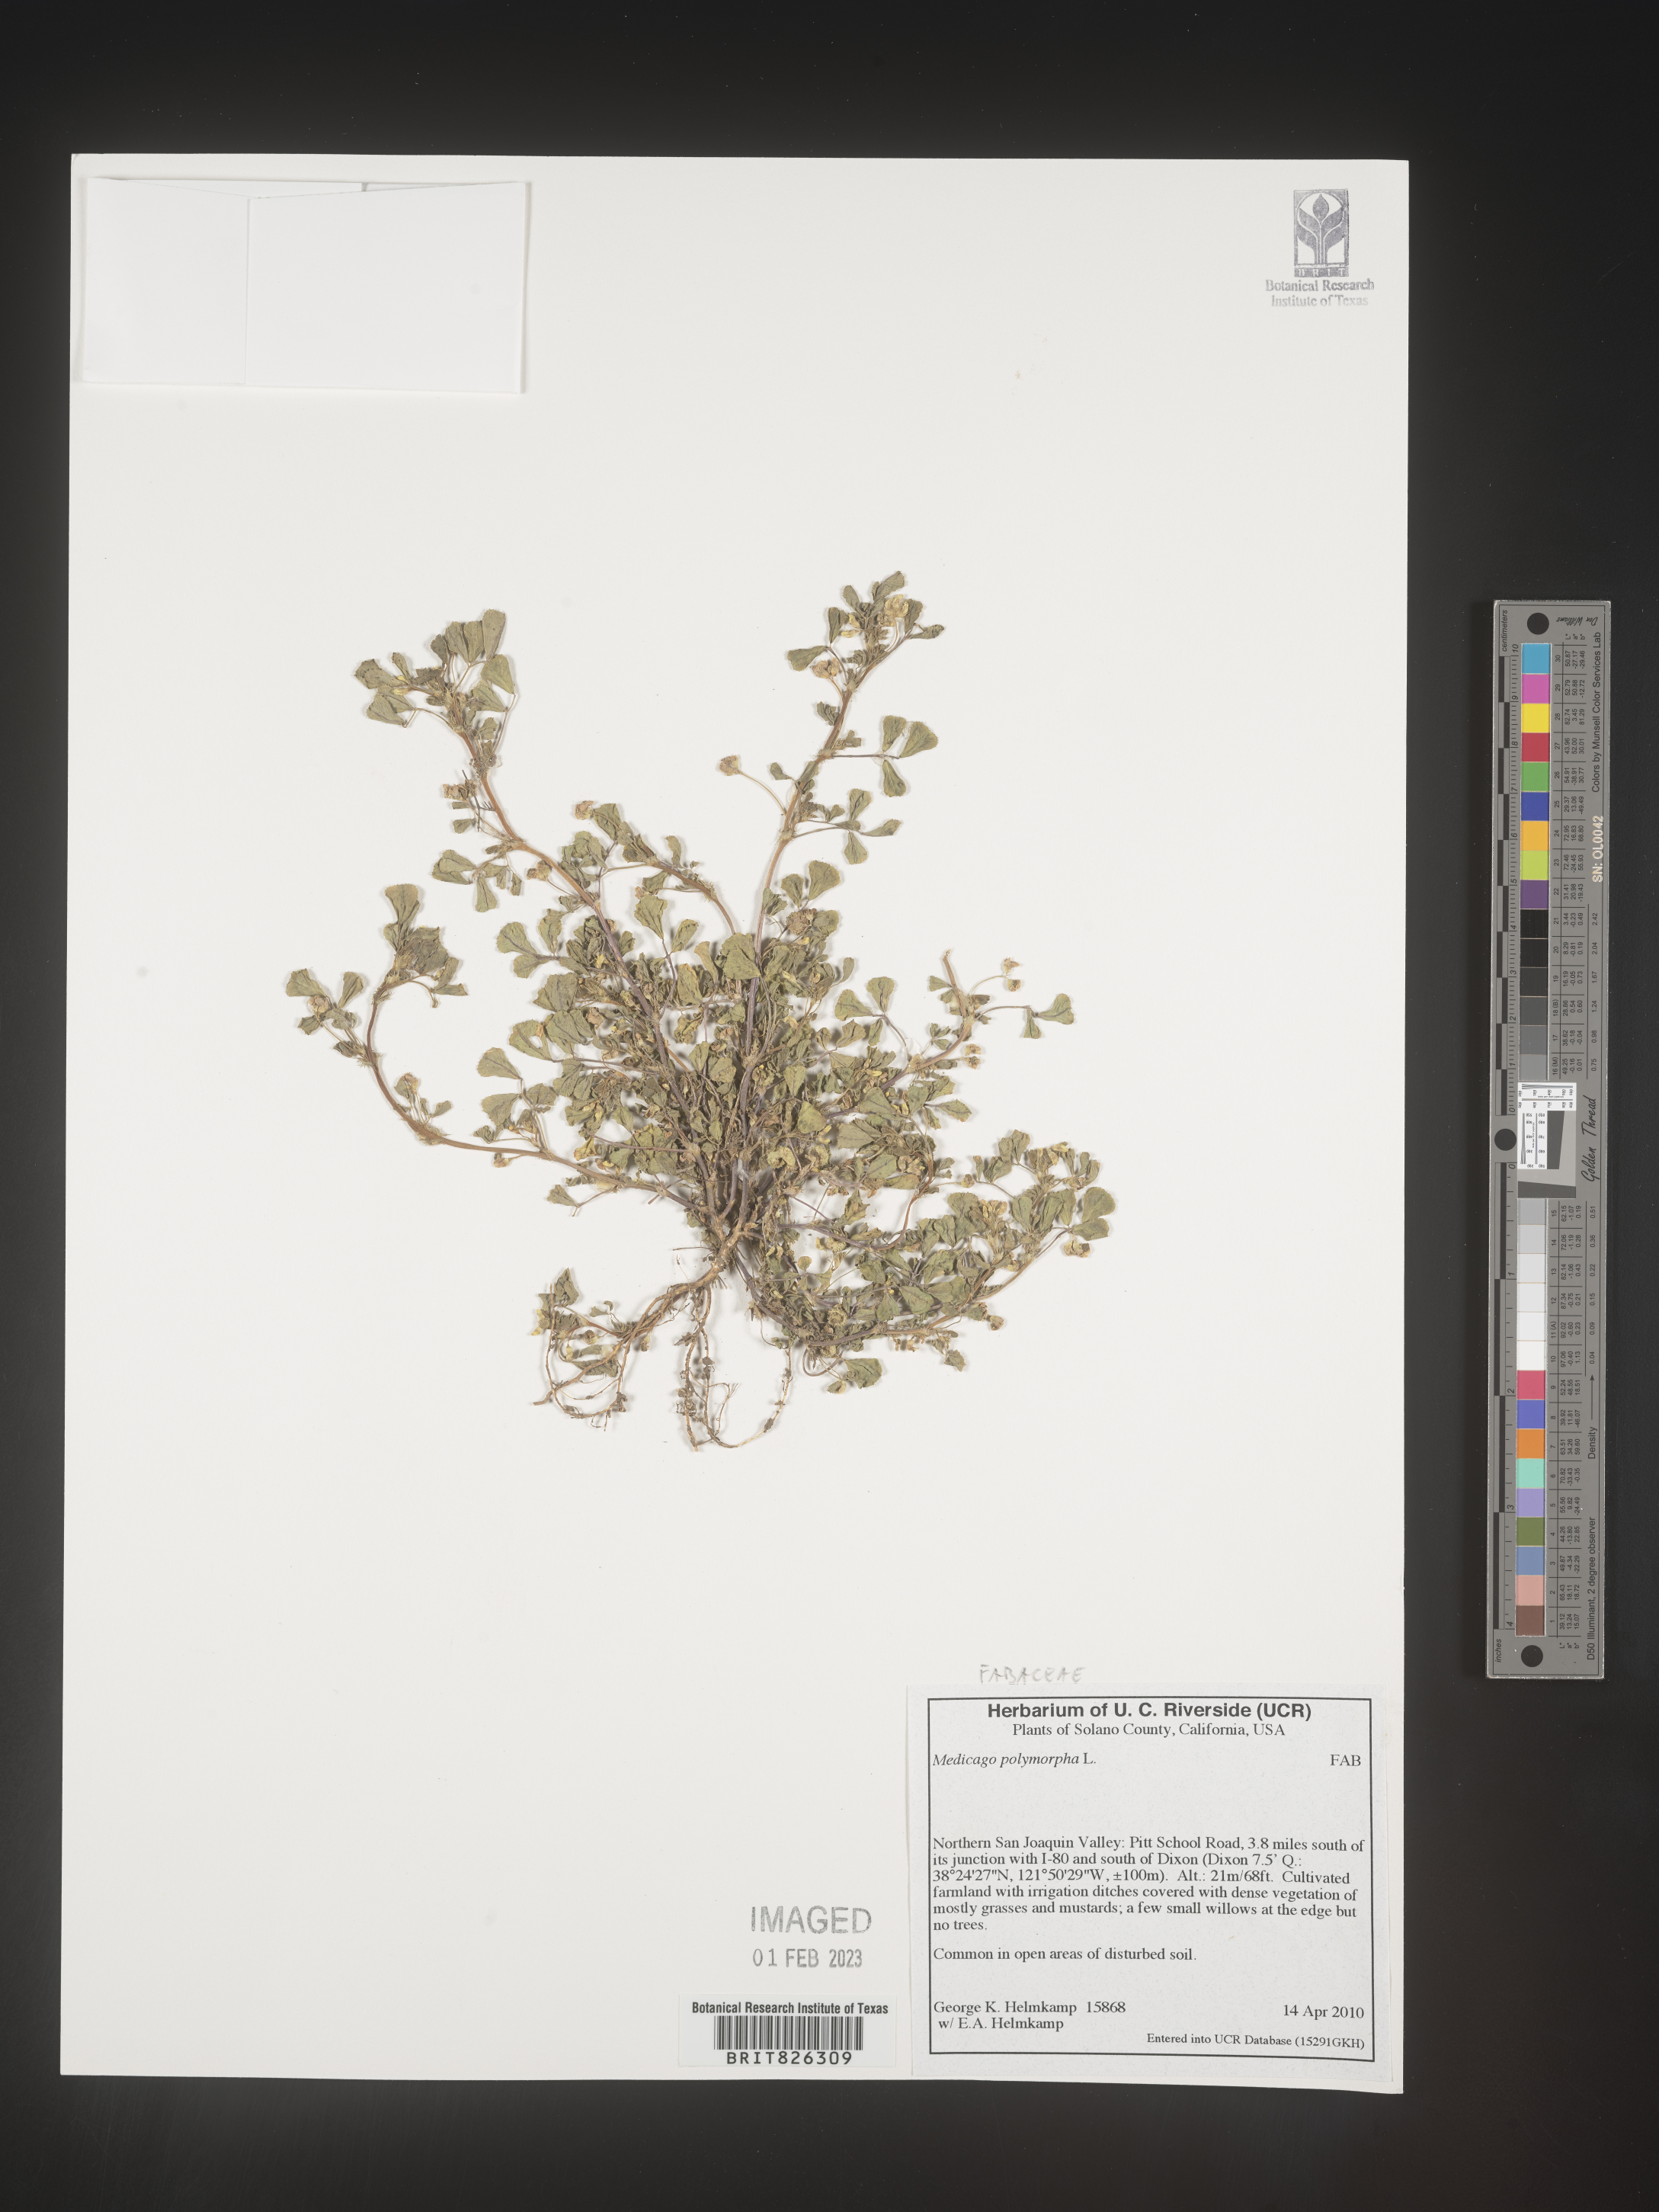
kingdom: Plantae
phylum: Tracheophyta
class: Magnoliopsida
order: Fabales
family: Fabaceae
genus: Medicago
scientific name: Medicago polymorpha
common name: Burclover
